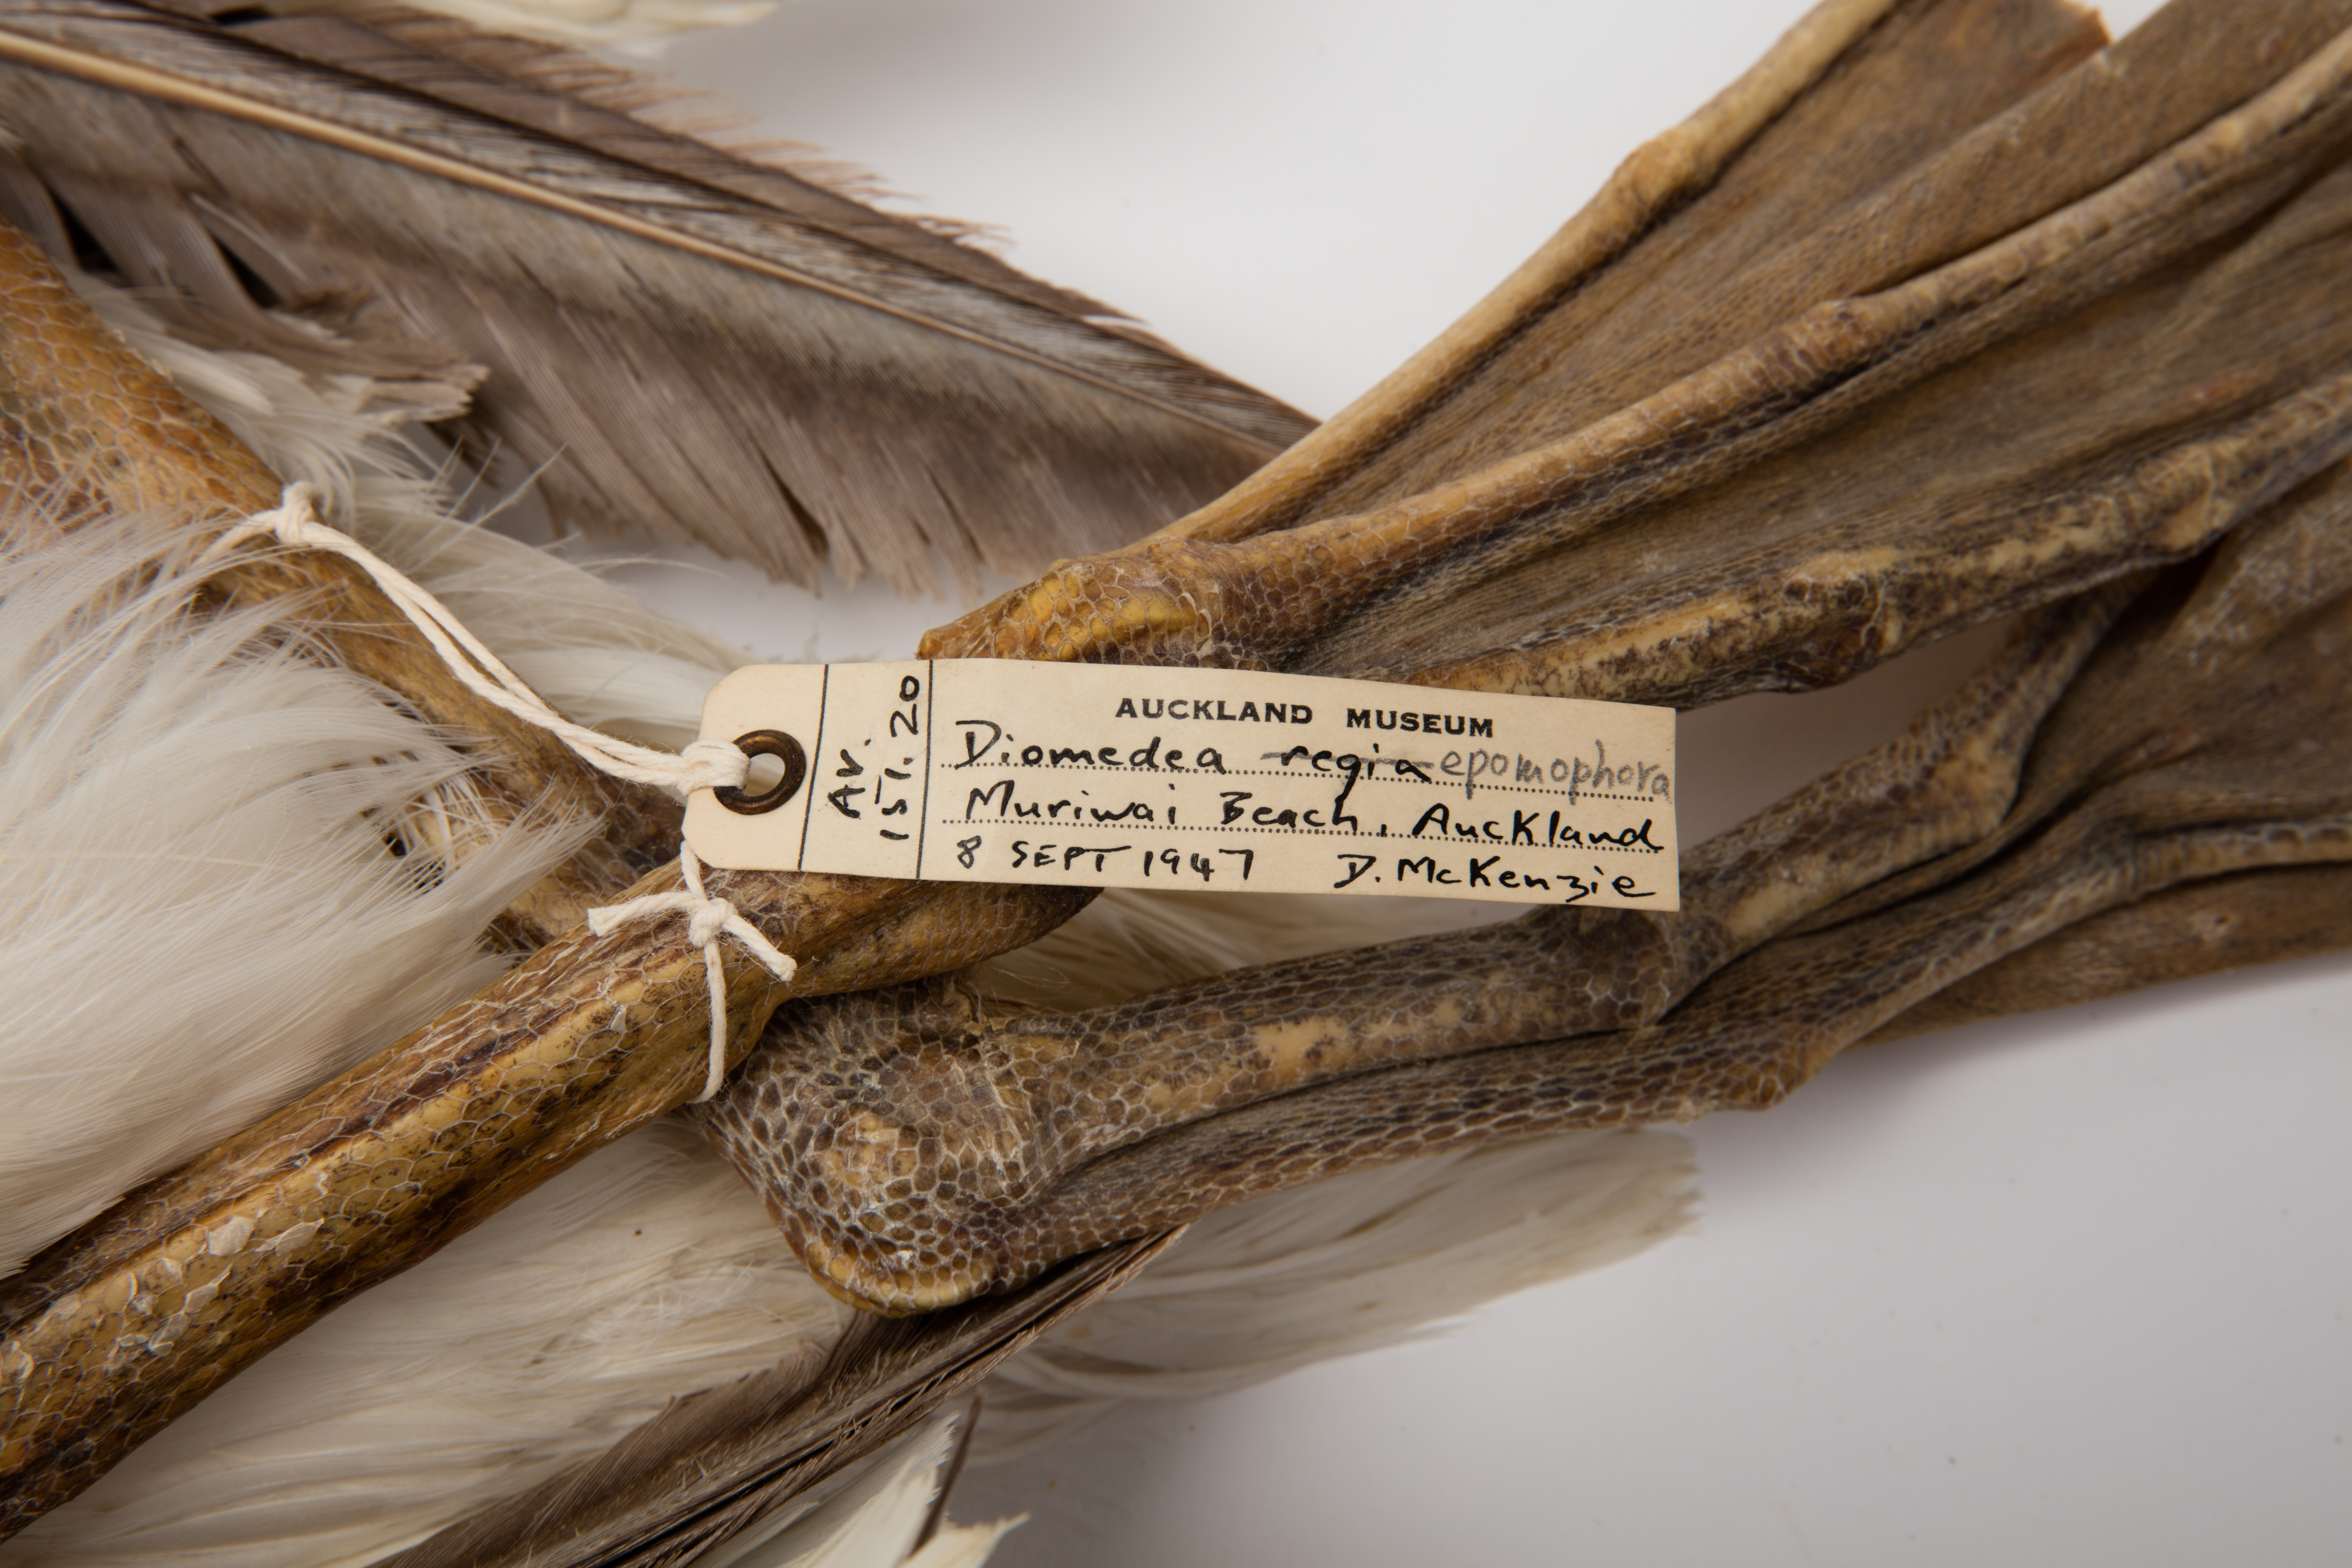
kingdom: Animalia
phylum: Chordata
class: Aves
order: Procellariiformes
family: Diomedeidae
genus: Diomedea
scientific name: Diomedea
